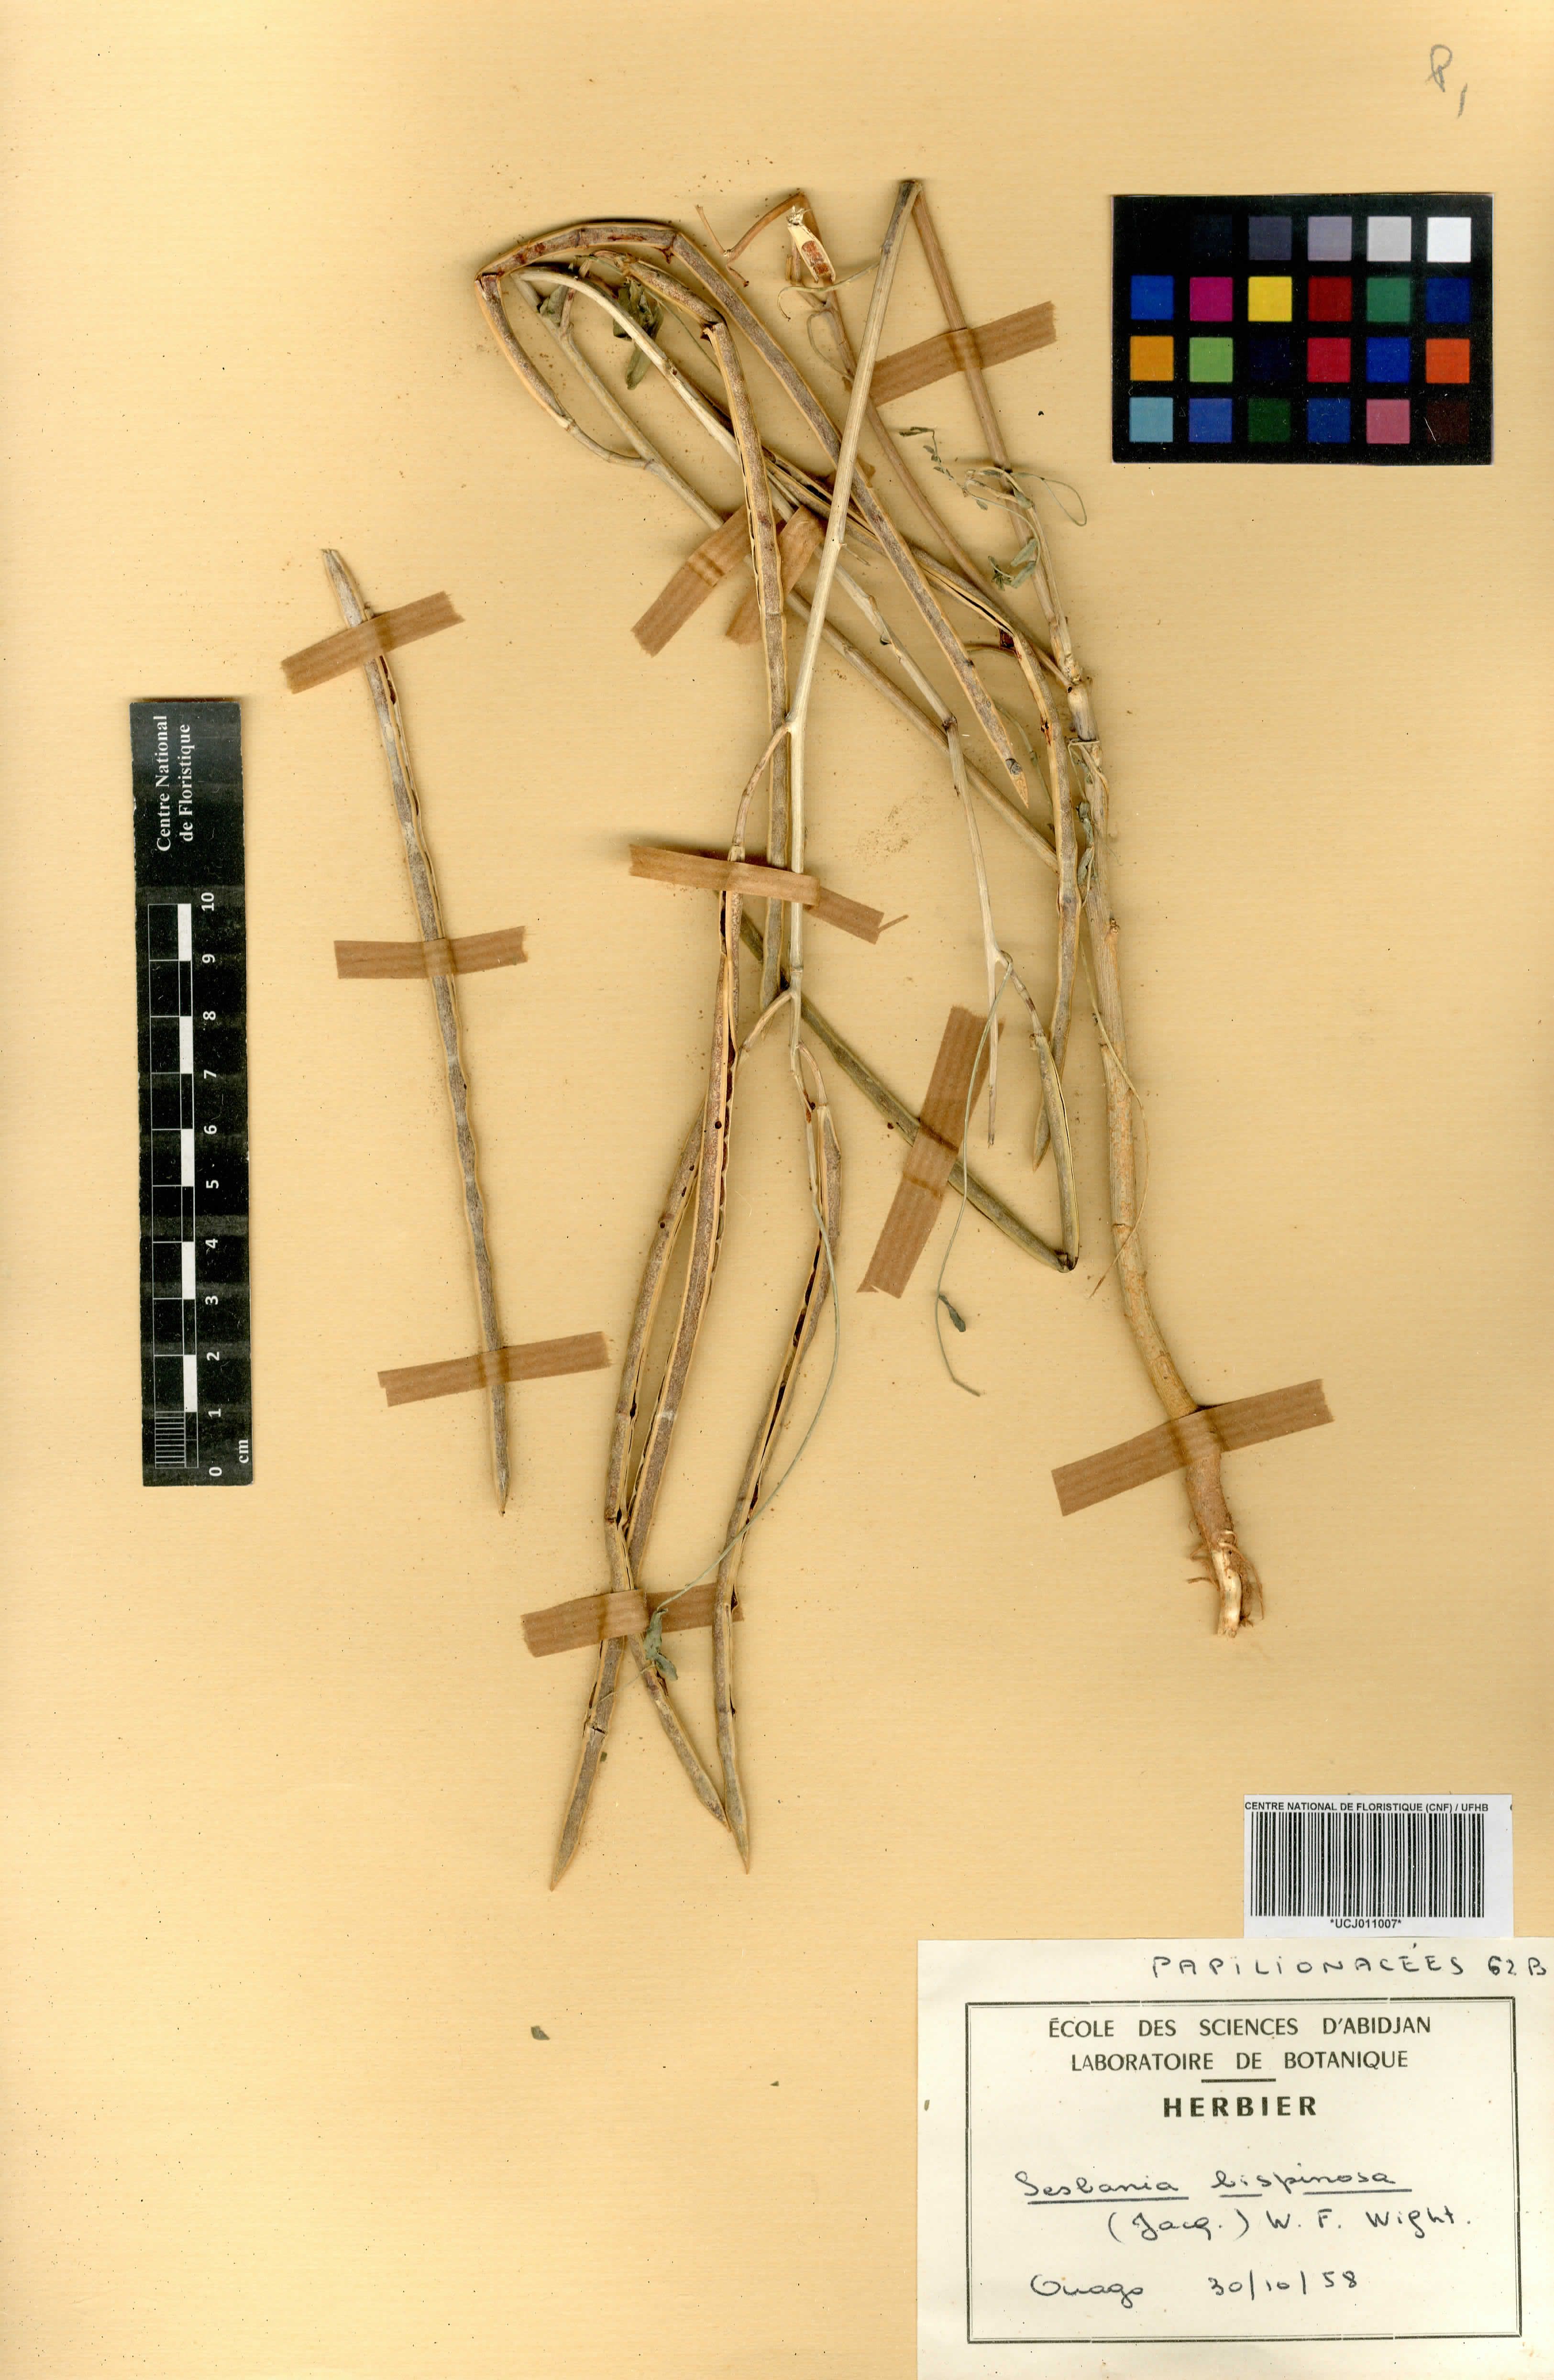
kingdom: Plantae
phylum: Tracheophyta
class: Magnoliopsida
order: Fabales
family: Fabaceae
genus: Sesbania
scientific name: Sesbania bispinosa
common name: Sesbania pea
